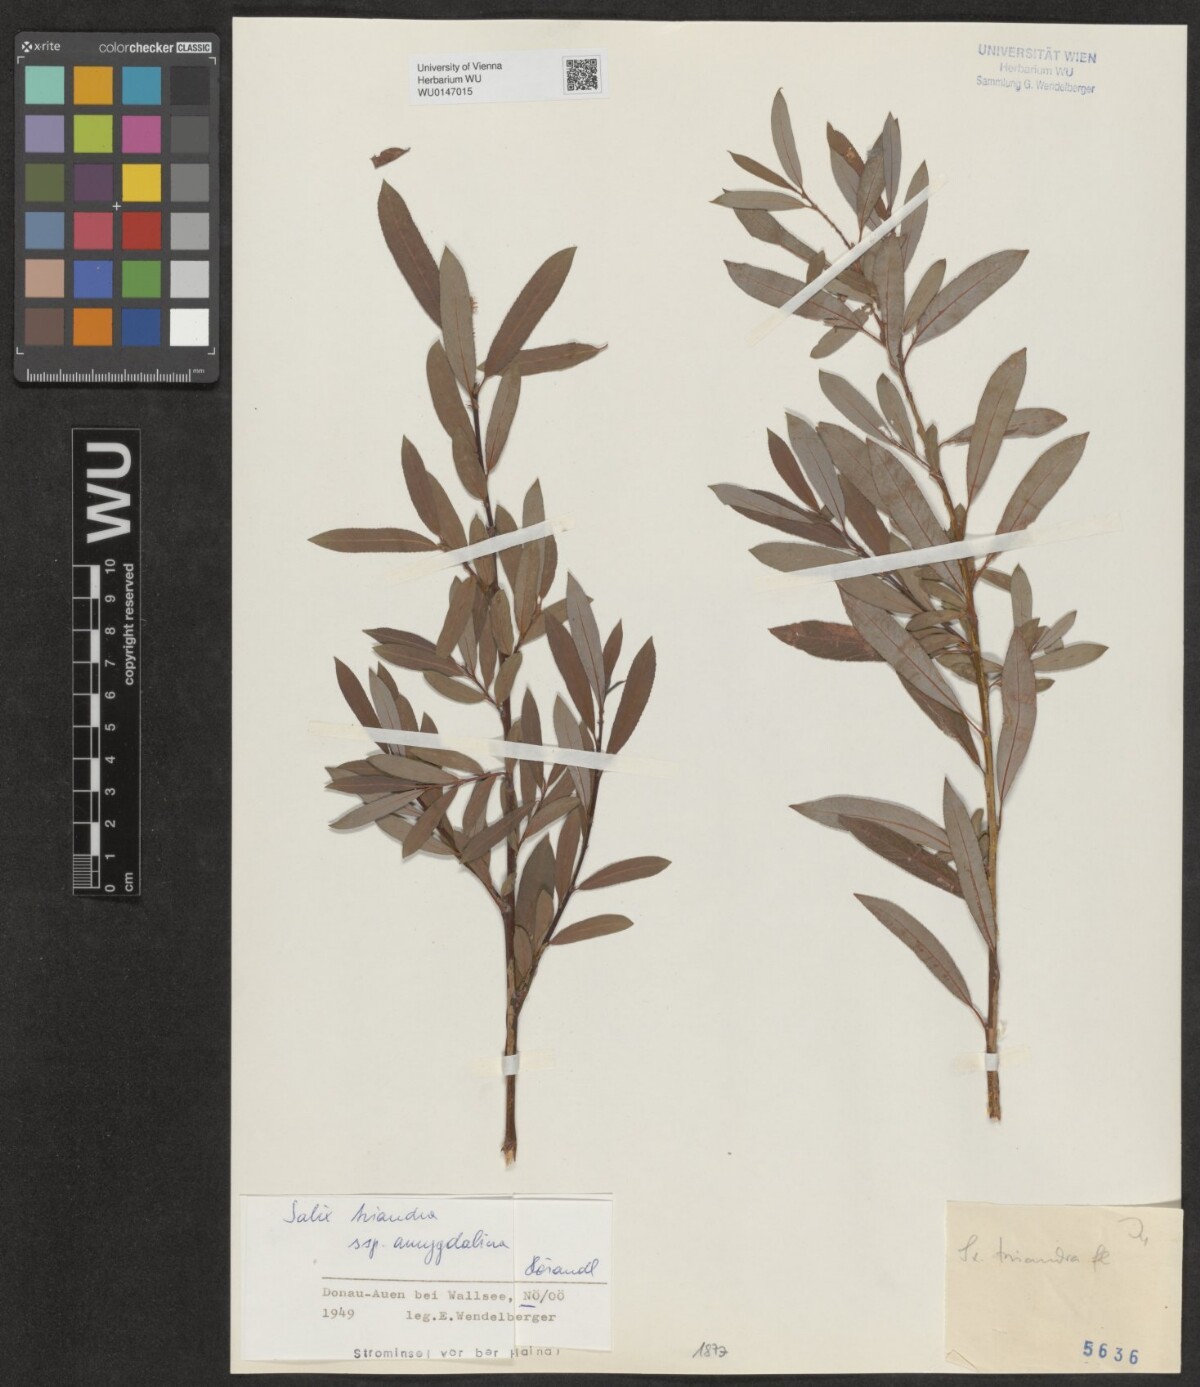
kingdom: Plantae
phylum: Tracheophyta
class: Magnoliopsida
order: Malpighiales
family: Salicaceae
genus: Salix
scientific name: Salix triandra
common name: Almond willow
